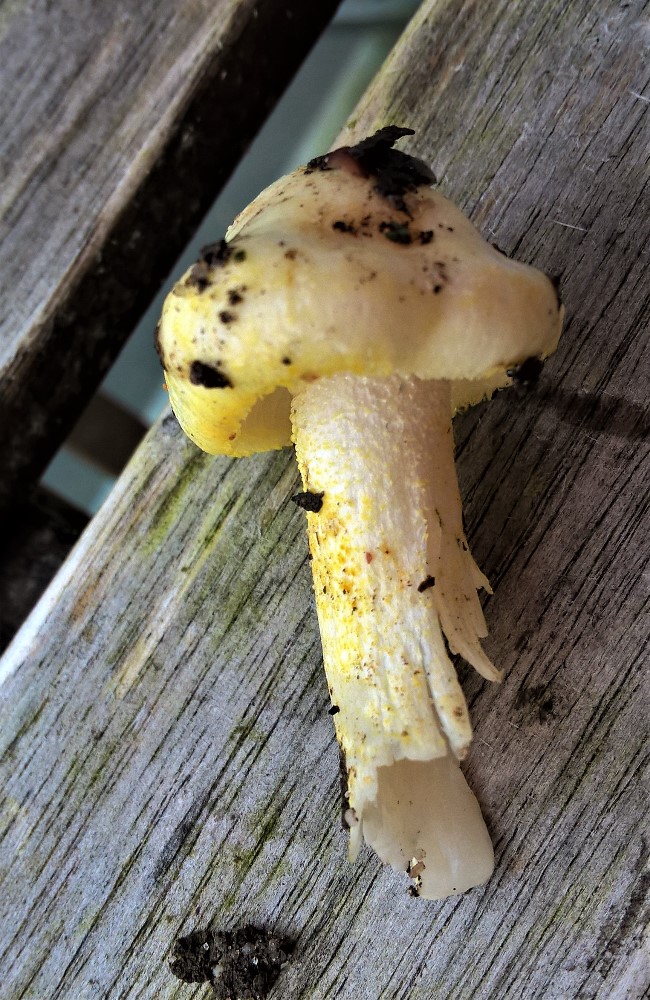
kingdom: Fungi
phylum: Basidiomycota
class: Agaricomycetes
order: Agaricales
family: Hygrophoraceae
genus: Hygrophorus
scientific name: Hygrophorus chrysodon
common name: gulfnugget sneglehat
